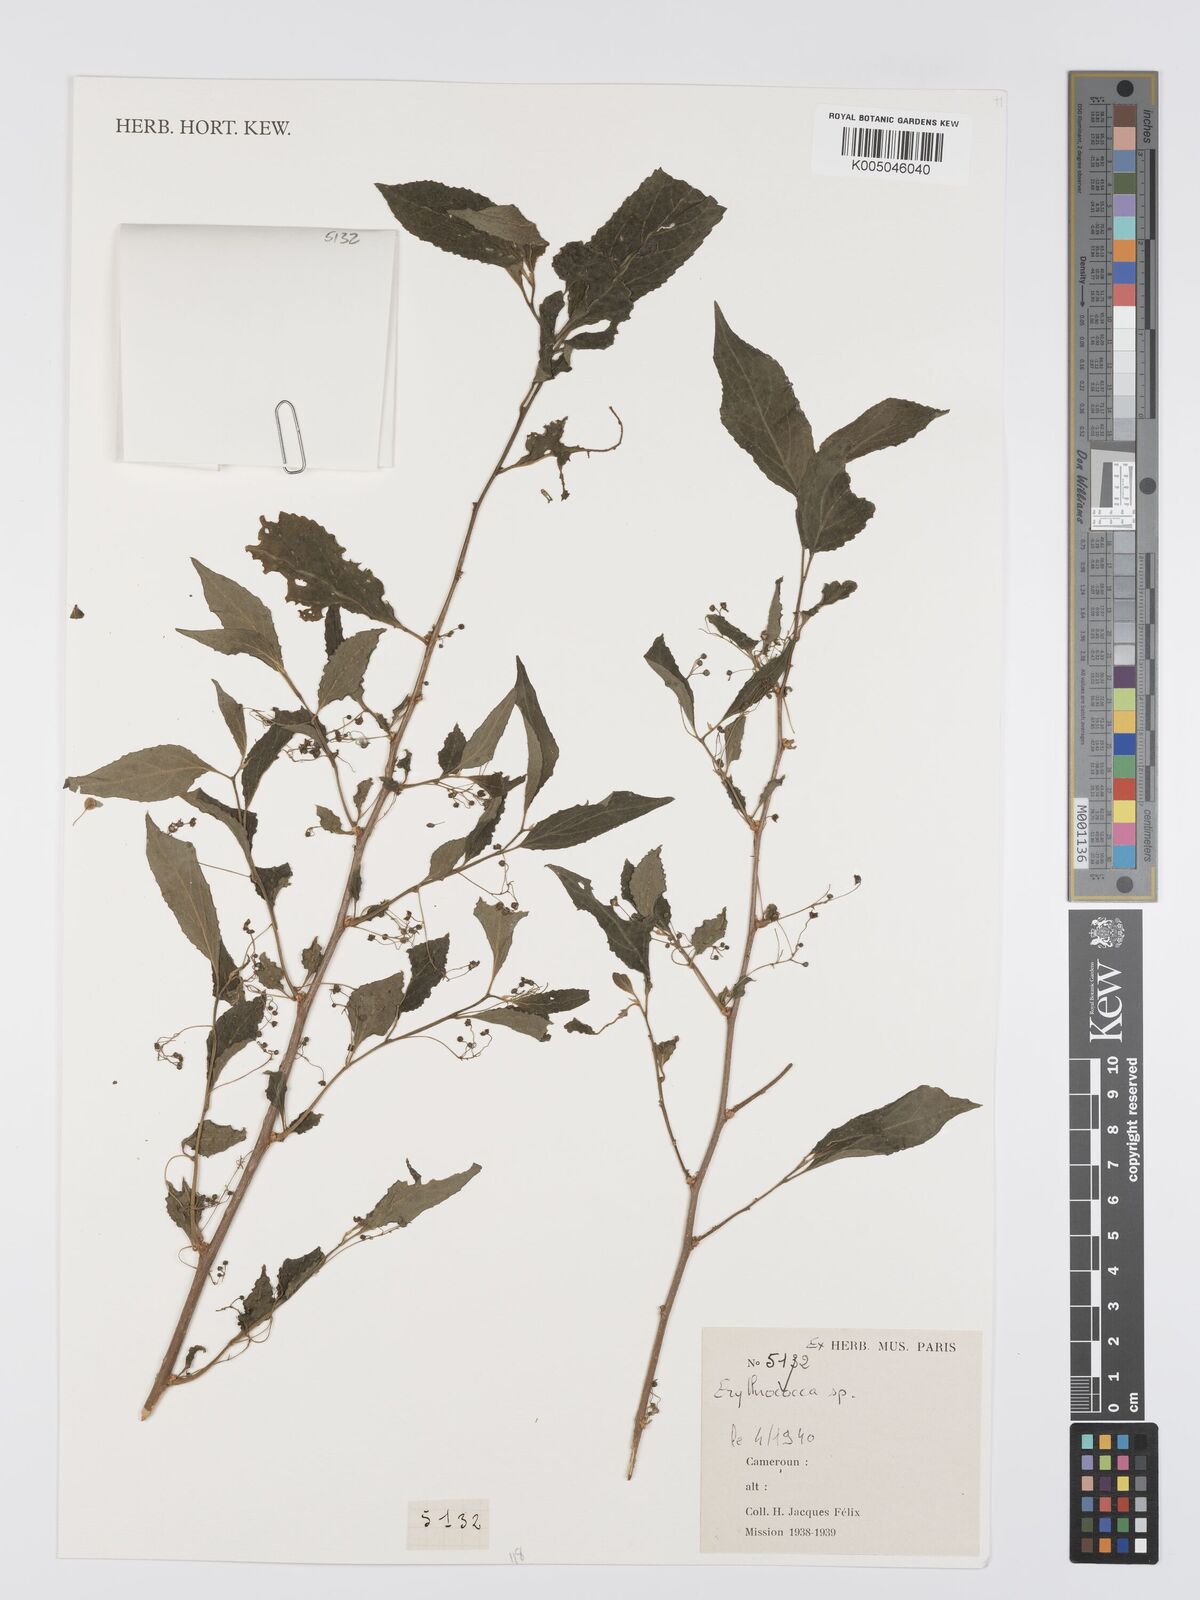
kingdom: Plantae
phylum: Tracheophyta
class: Magnoliopsida
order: Malpighiales
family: Euphorbiaceae
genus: Erythrococca
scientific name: Erythrococca
